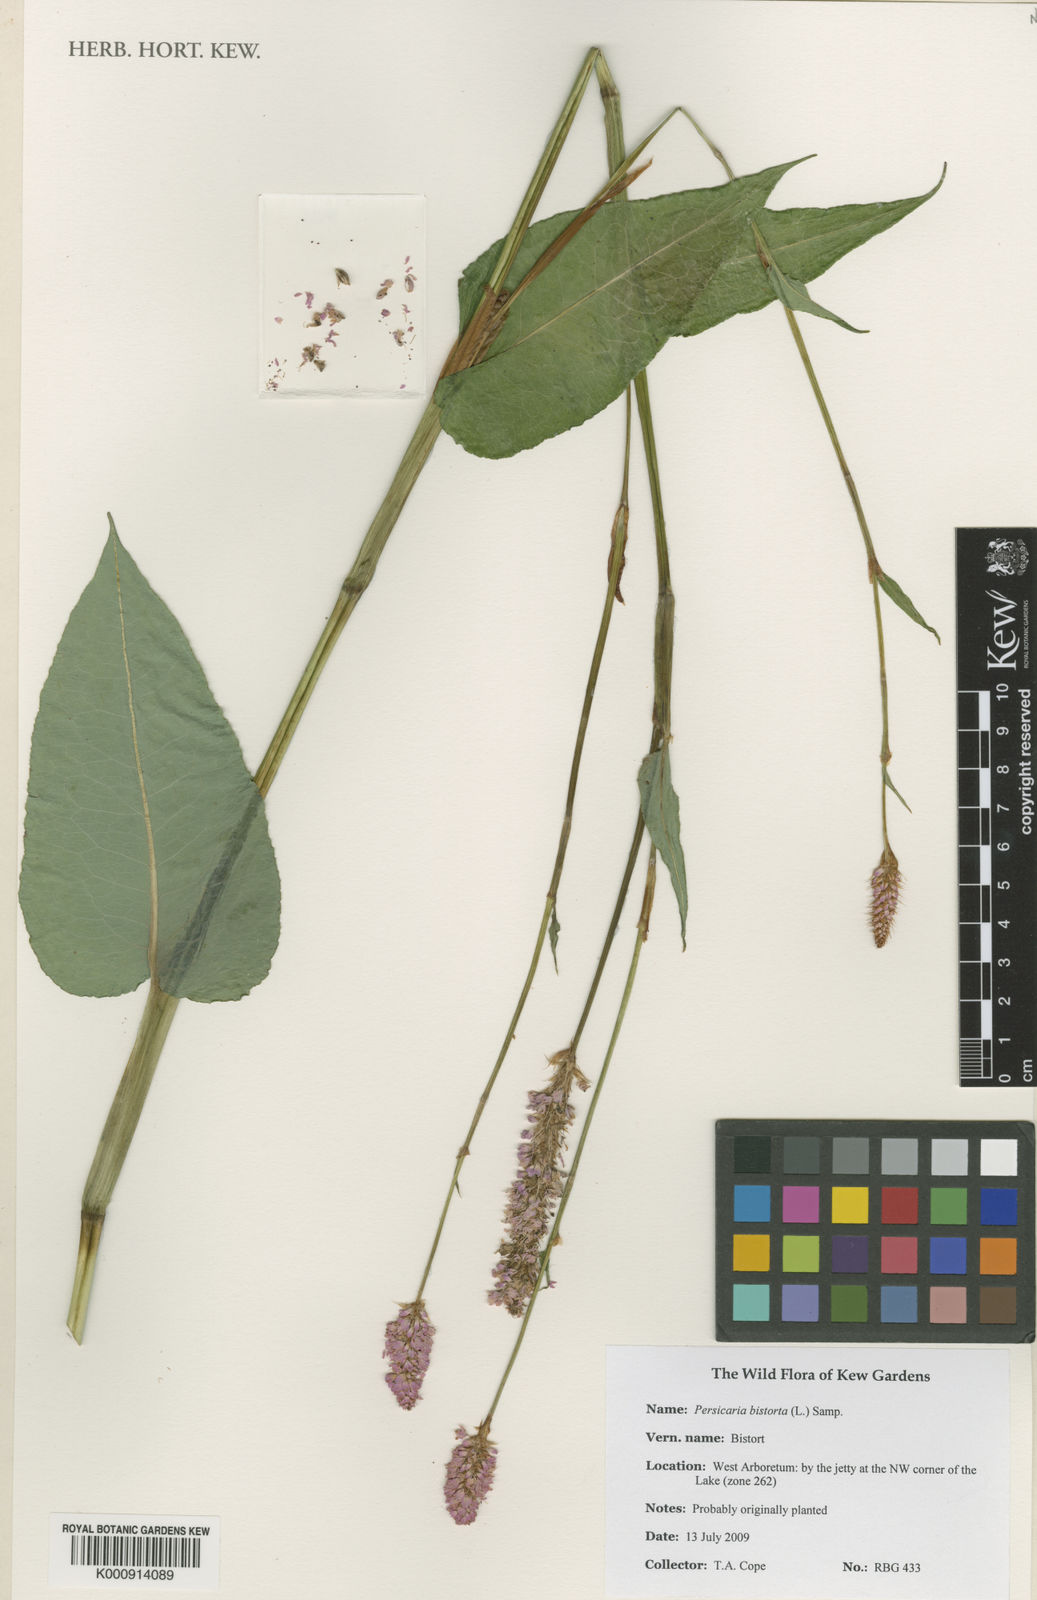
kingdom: Plantae
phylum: Tracheophyta
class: Magnoliopsida
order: Caryophyllales
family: Polygonaceae
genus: Bistorta
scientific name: Bistorta officinalis
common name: Common bistort
